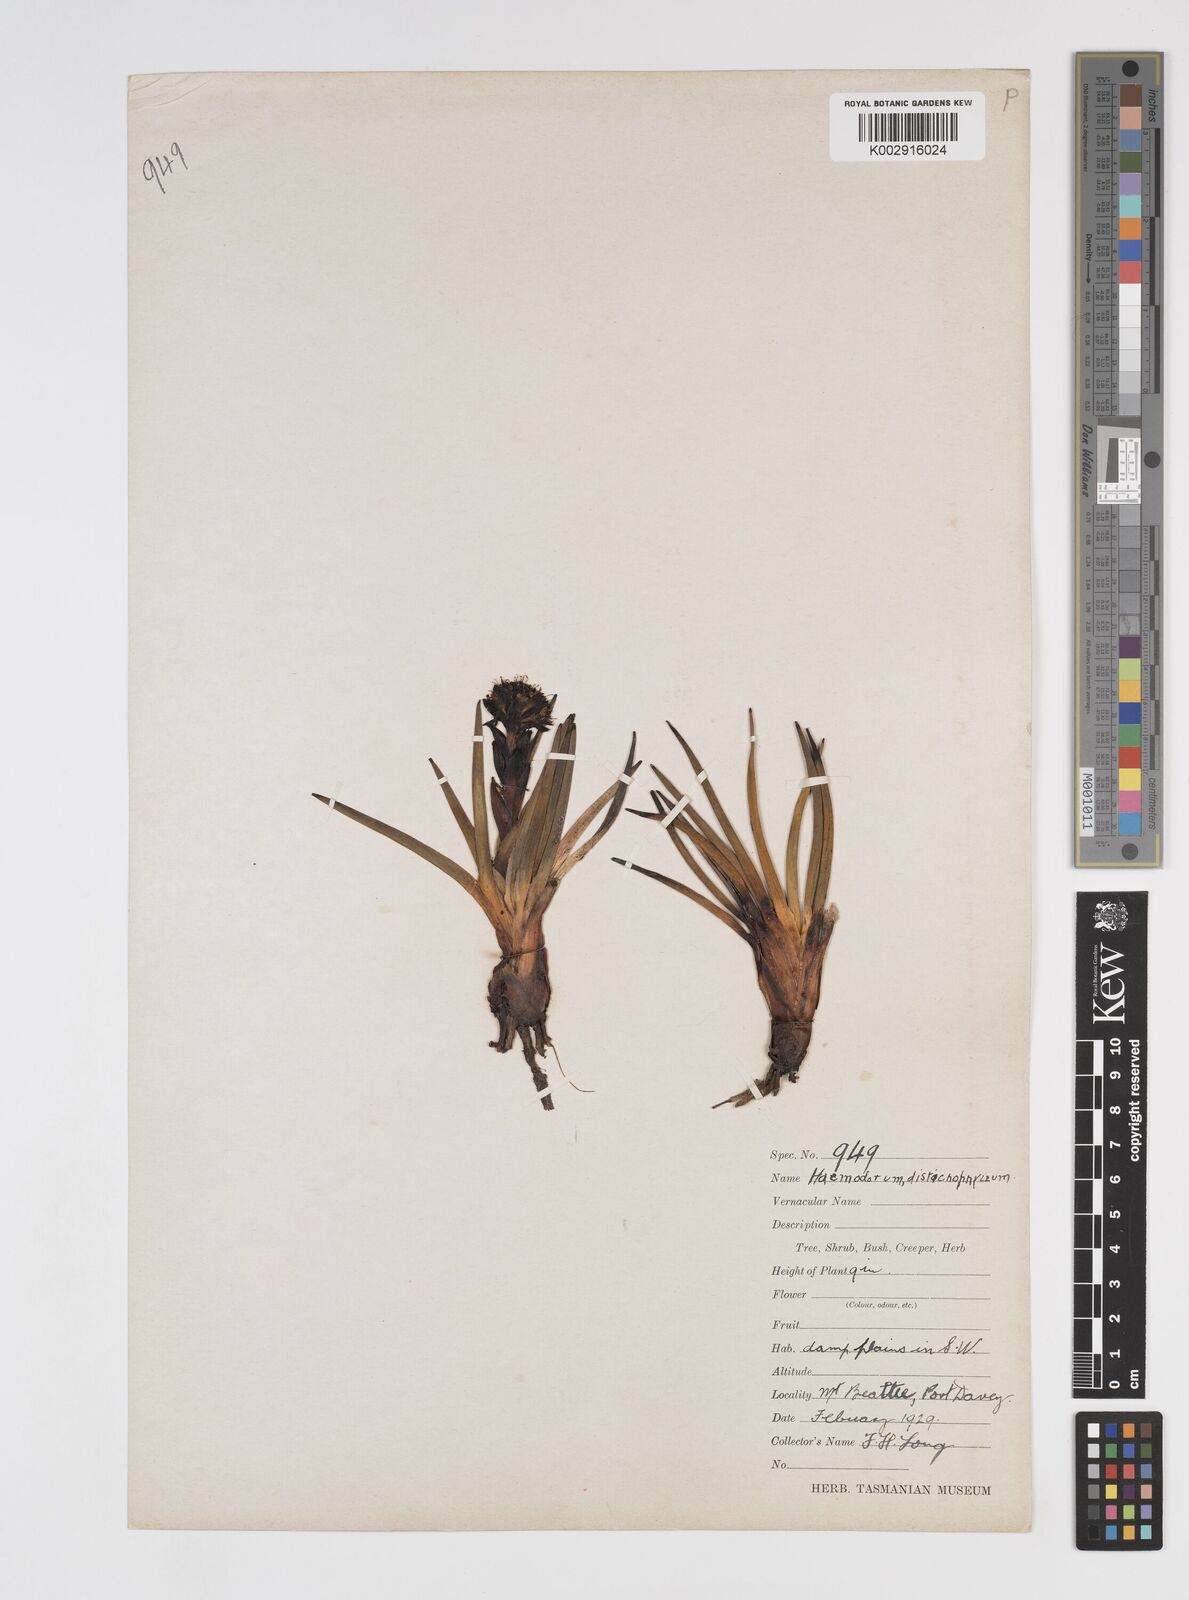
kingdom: Plantae
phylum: Tracheophyta
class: Liliopsida
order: Commelinales
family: Haemodoraceae
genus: Haemodorum
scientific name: Haemodorum distichophyllum
